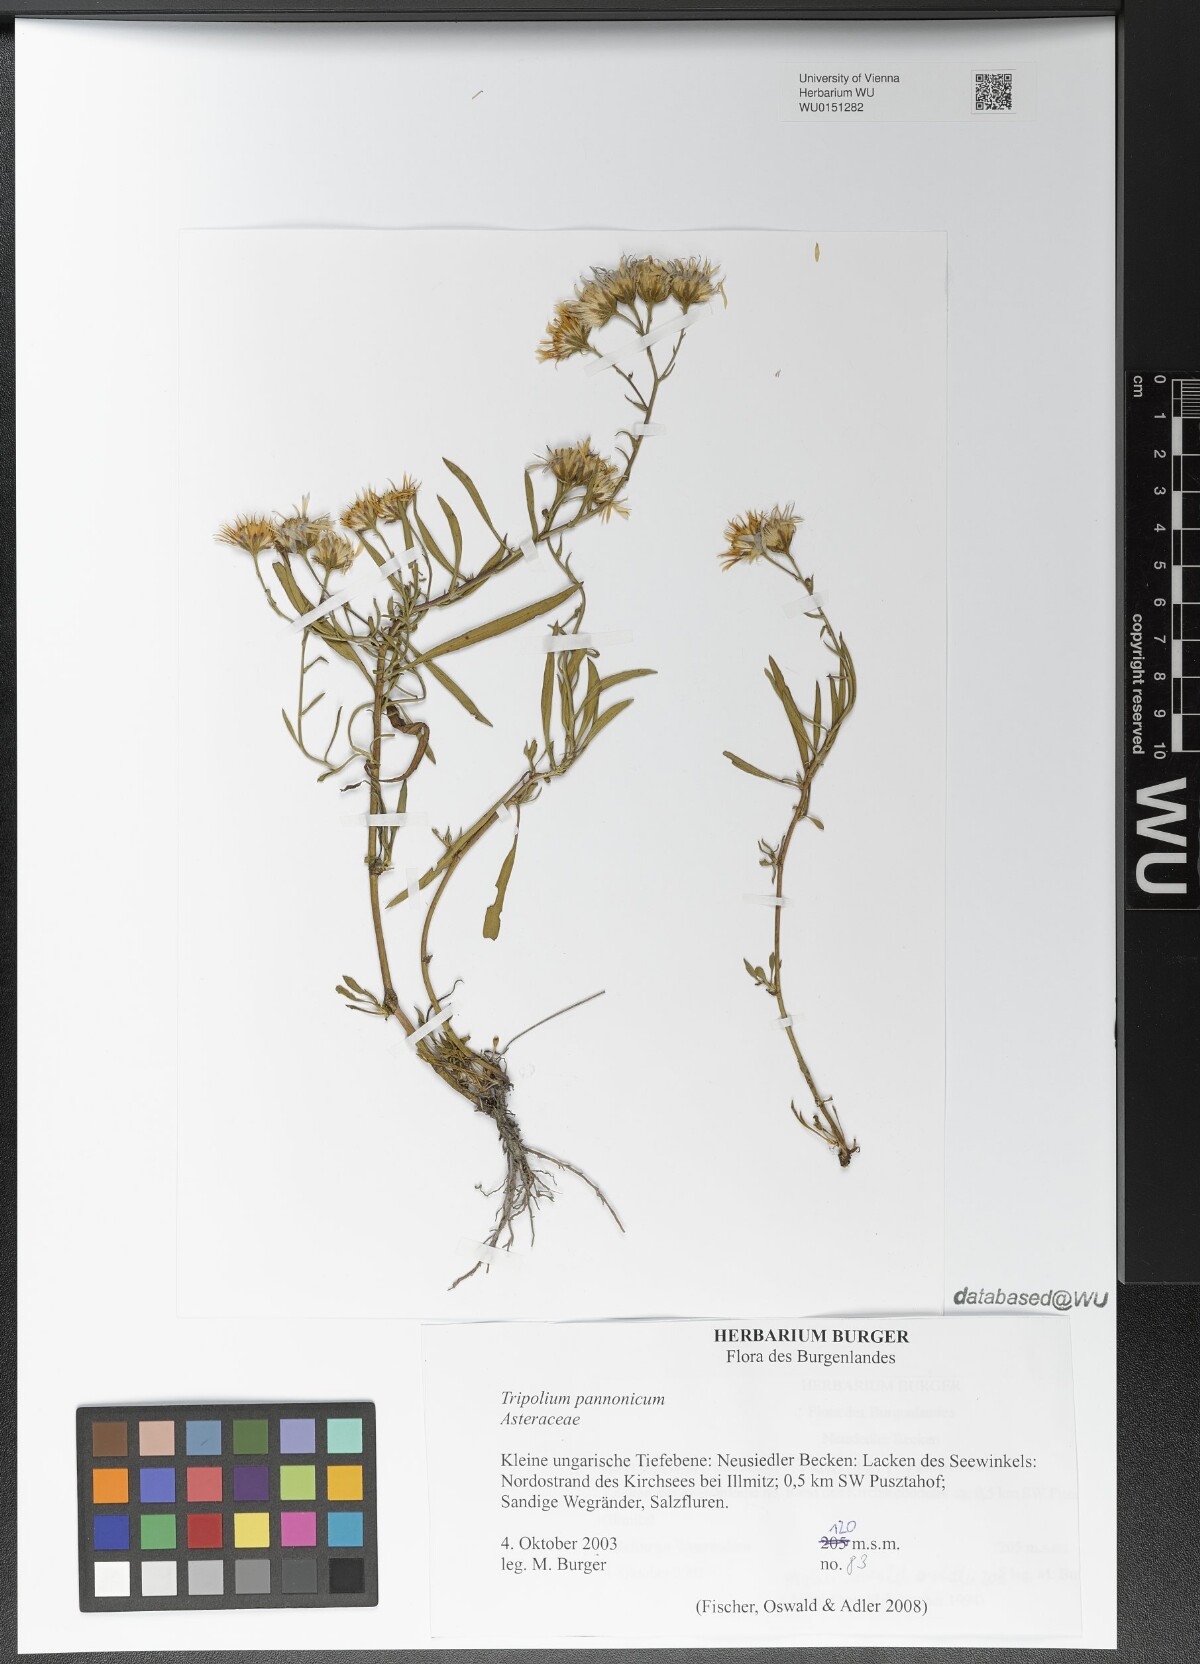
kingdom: Plantae
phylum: Tracheophyta
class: Magnoliopsida
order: Asterales
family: Asteraceae
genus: Tripolium
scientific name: Tripolium pannonicum
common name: Sea aster
